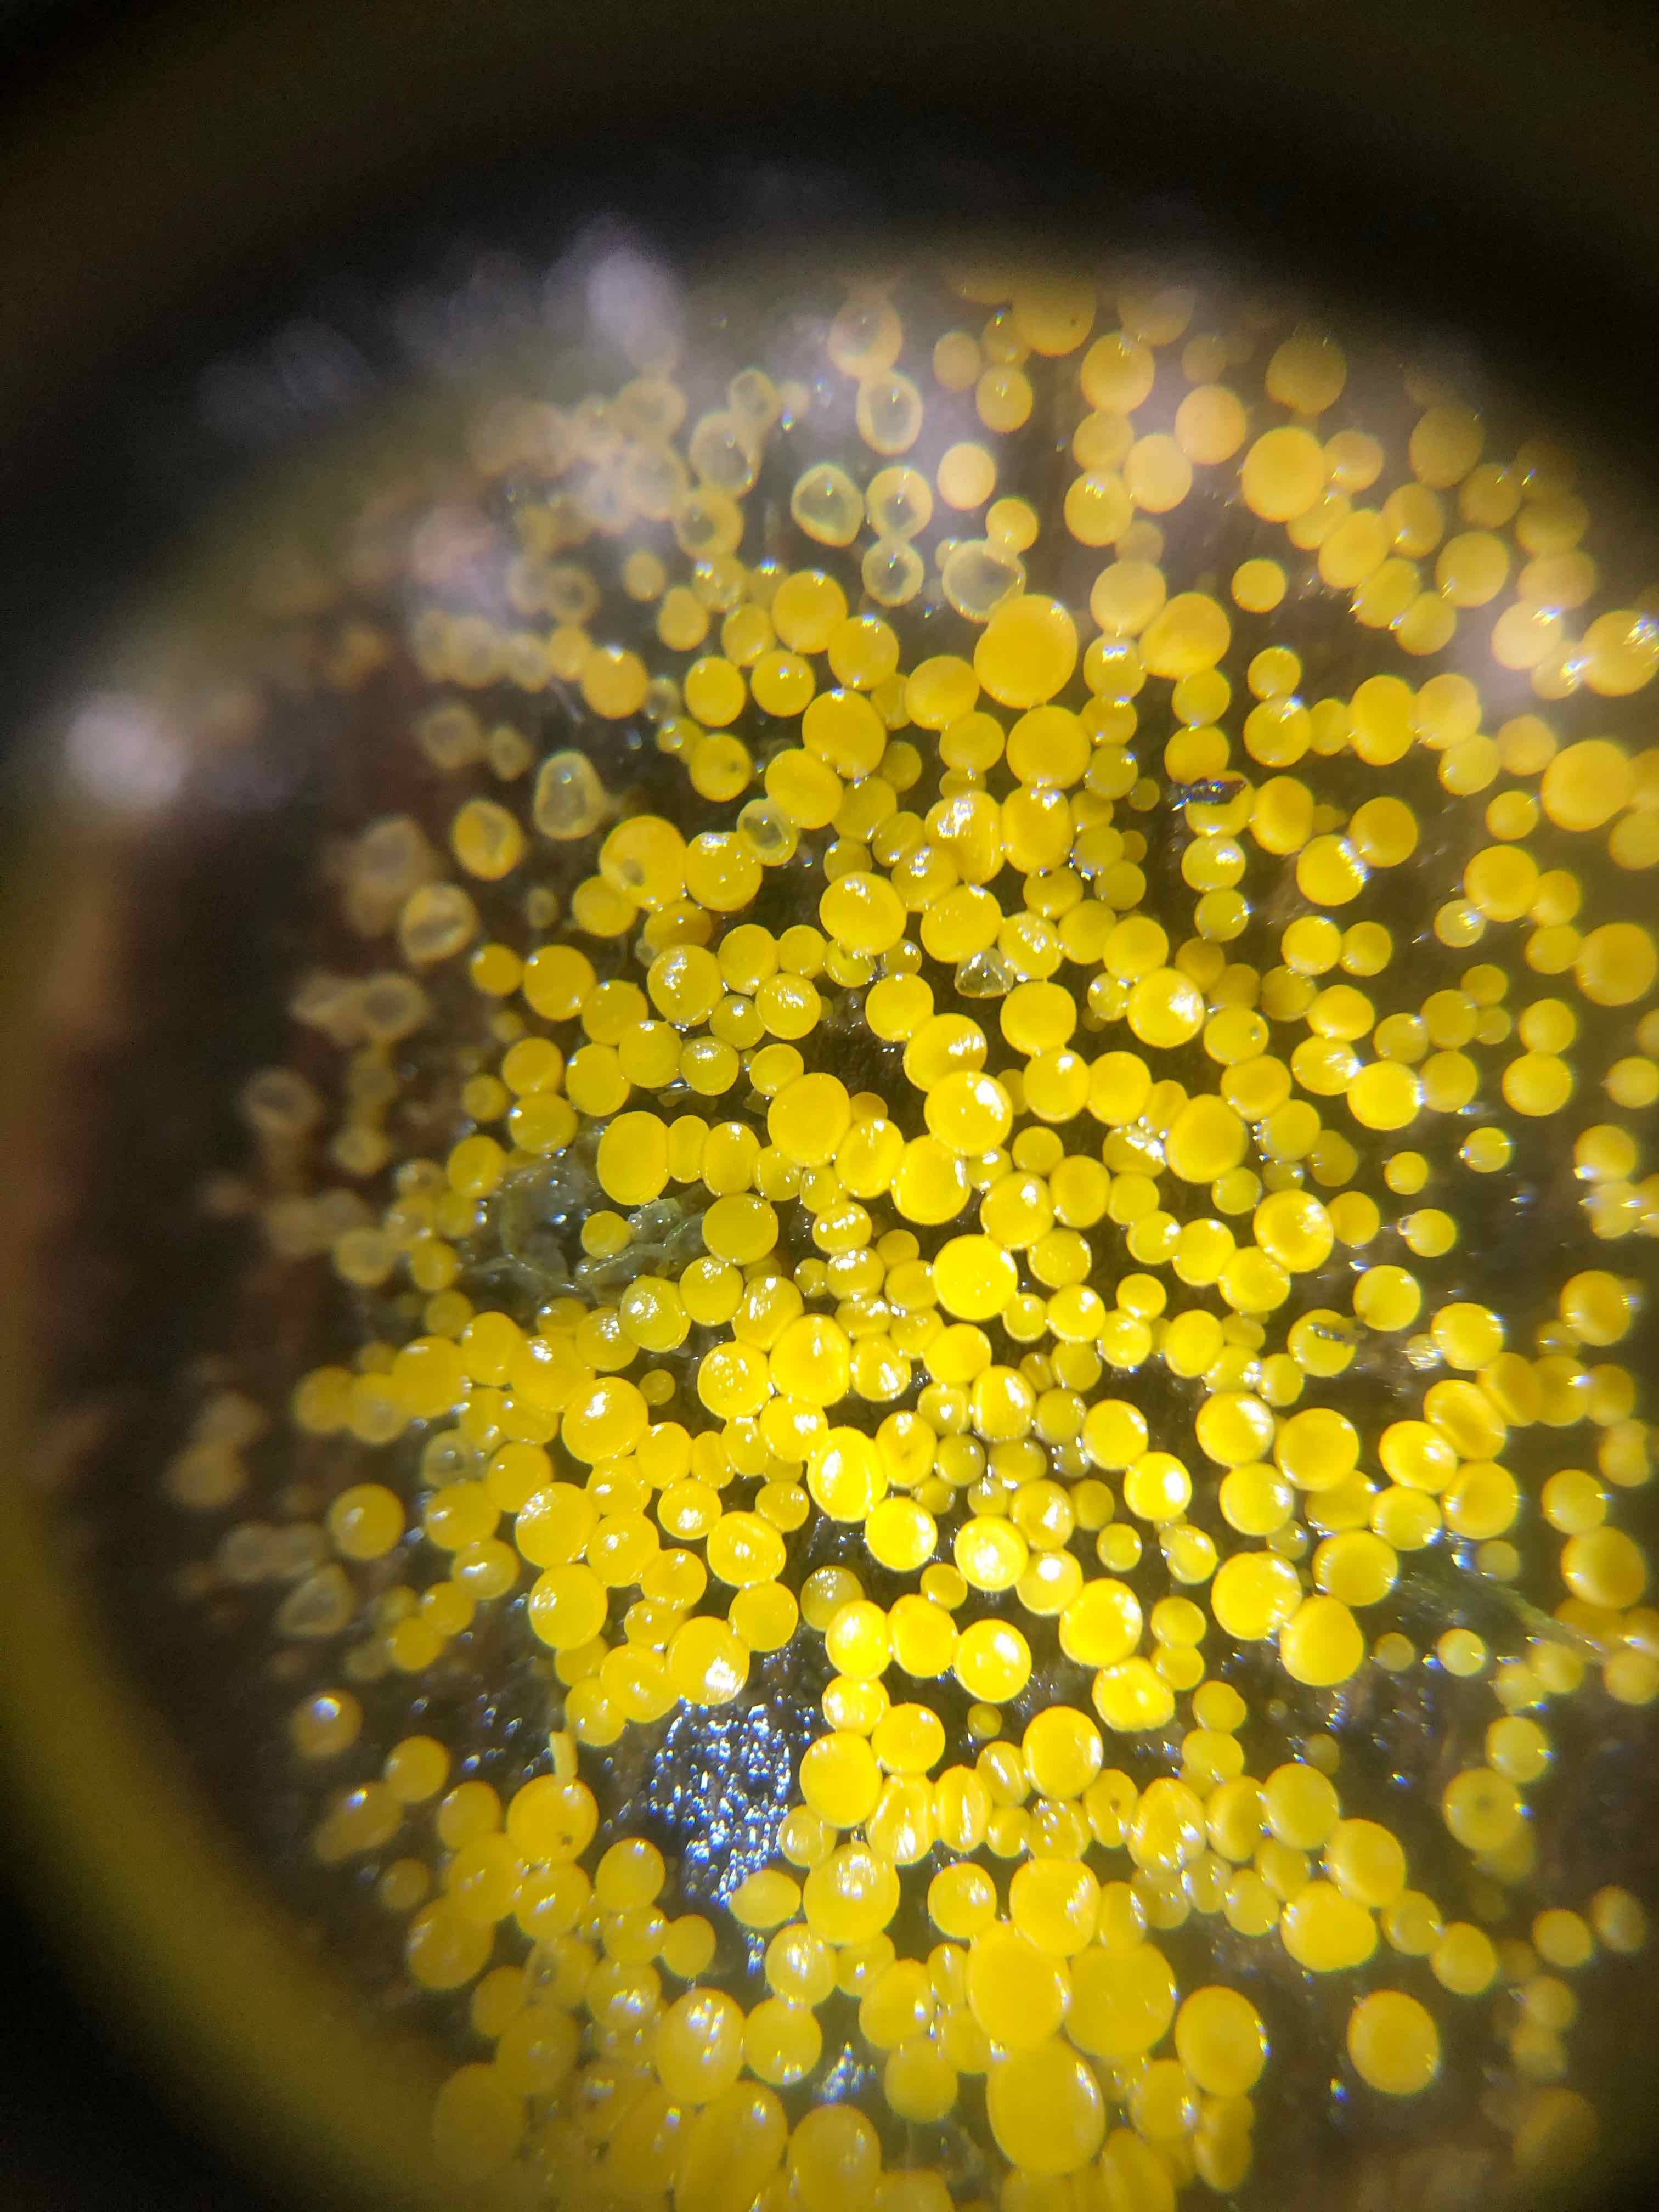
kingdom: Fungi
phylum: Ascomycota
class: Leotiomycetes
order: Helotiales
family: Pezizellaceae
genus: Calycina
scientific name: Calycina citrina
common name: almindelig gulskive
